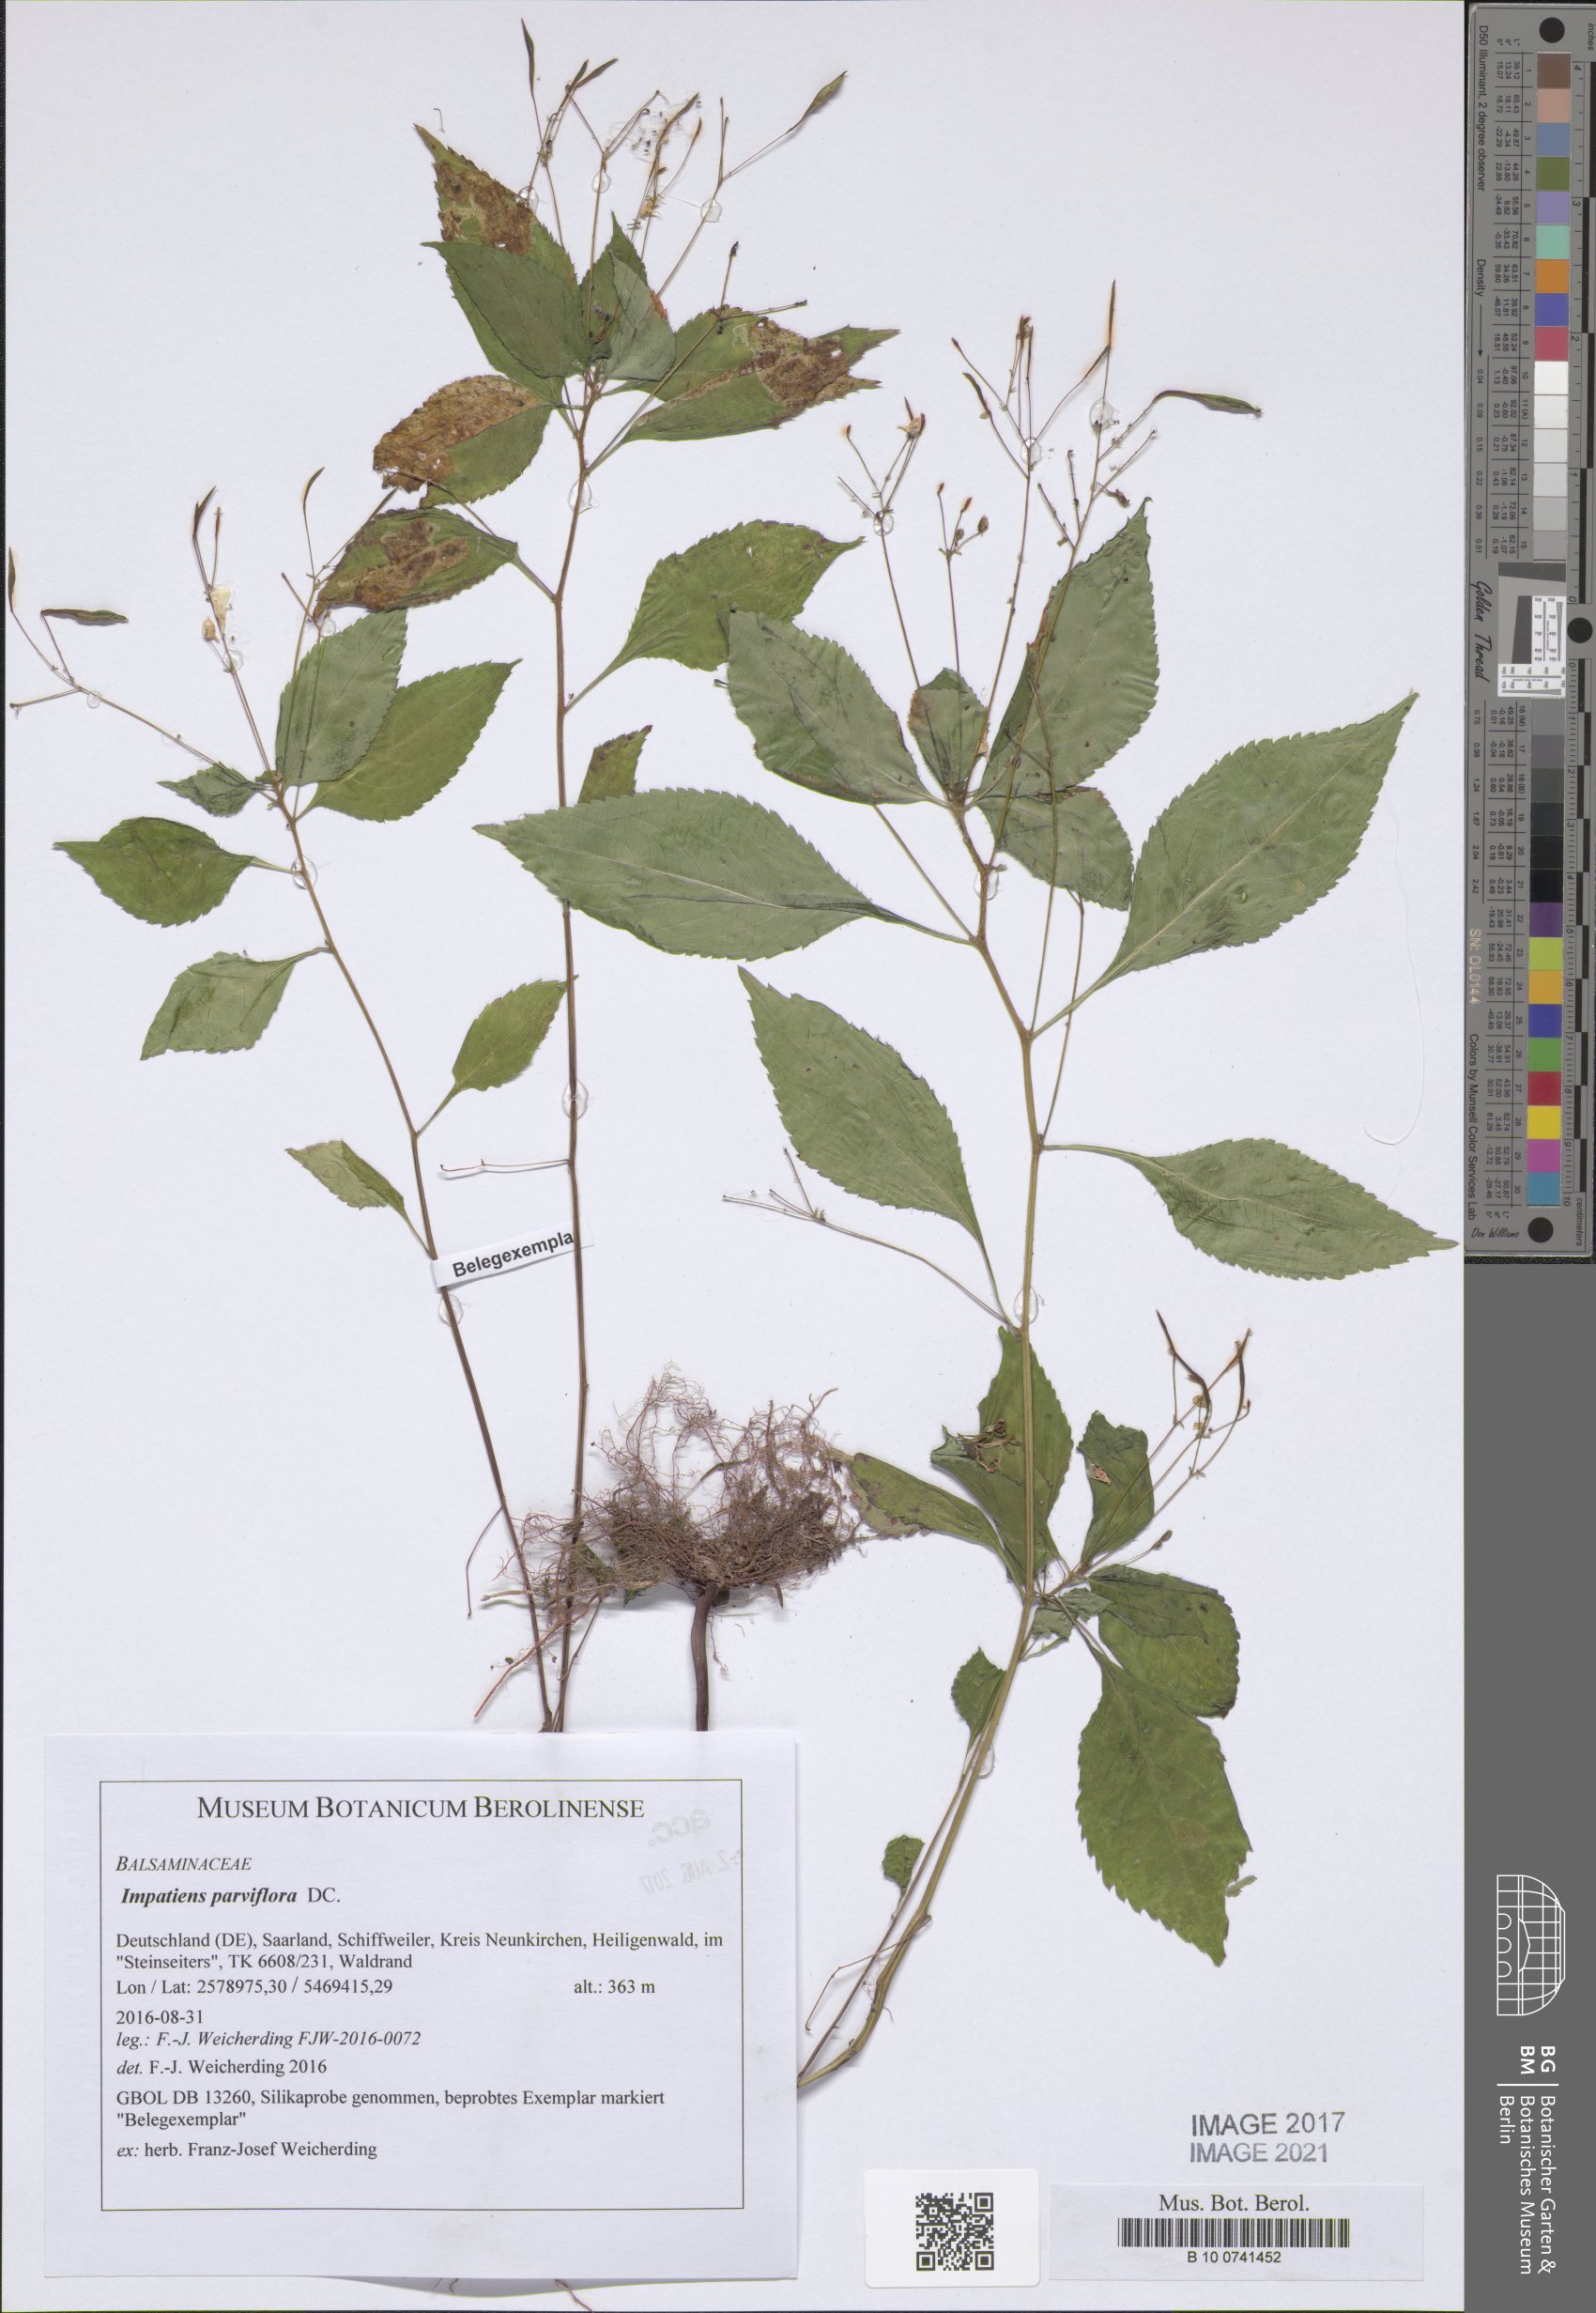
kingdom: Plantae
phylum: Tracheophyta
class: Magnoliopsida
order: Ericales
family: Balsaminaceae
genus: Impatiens
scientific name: Impatiens parviflora
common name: Small balsam
